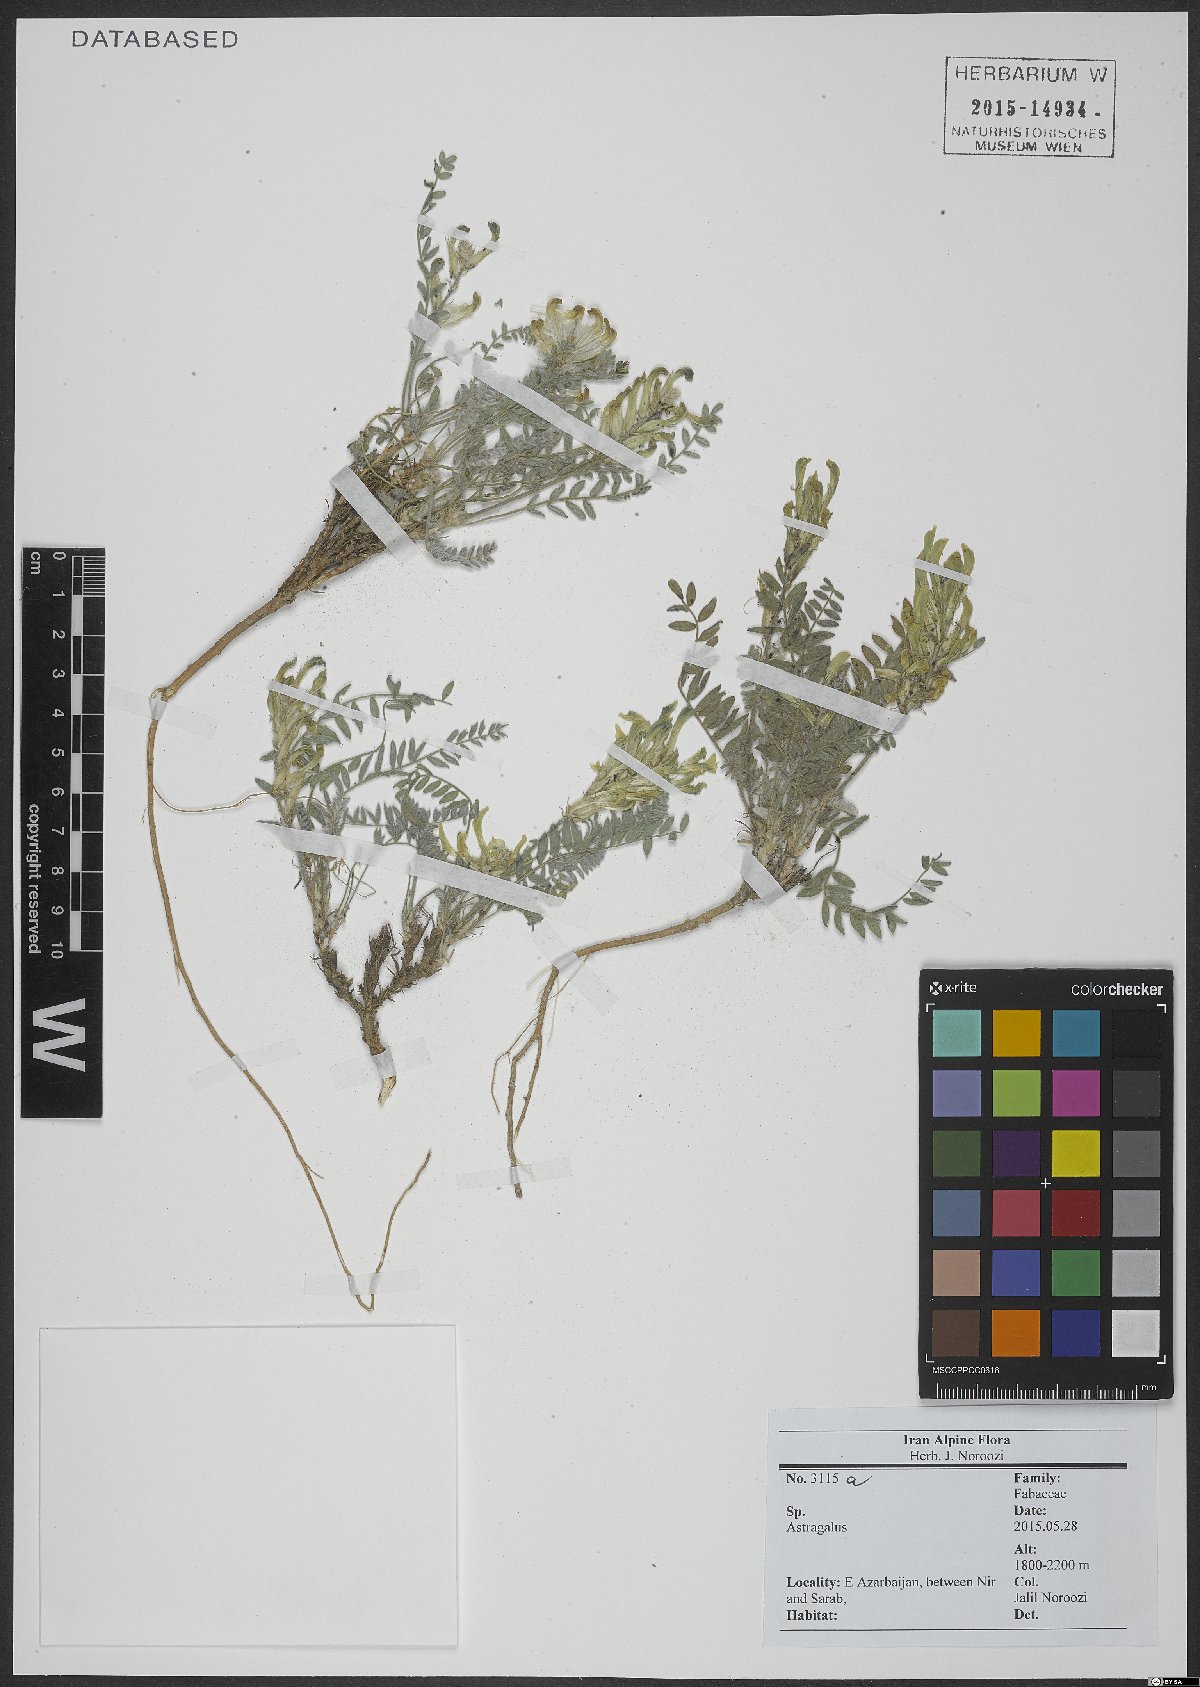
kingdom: Plantae
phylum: Tracheophyta
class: Magnoliopsida
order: Fabales
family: Fabaceae
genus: Astragalus
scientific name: Astragalus
